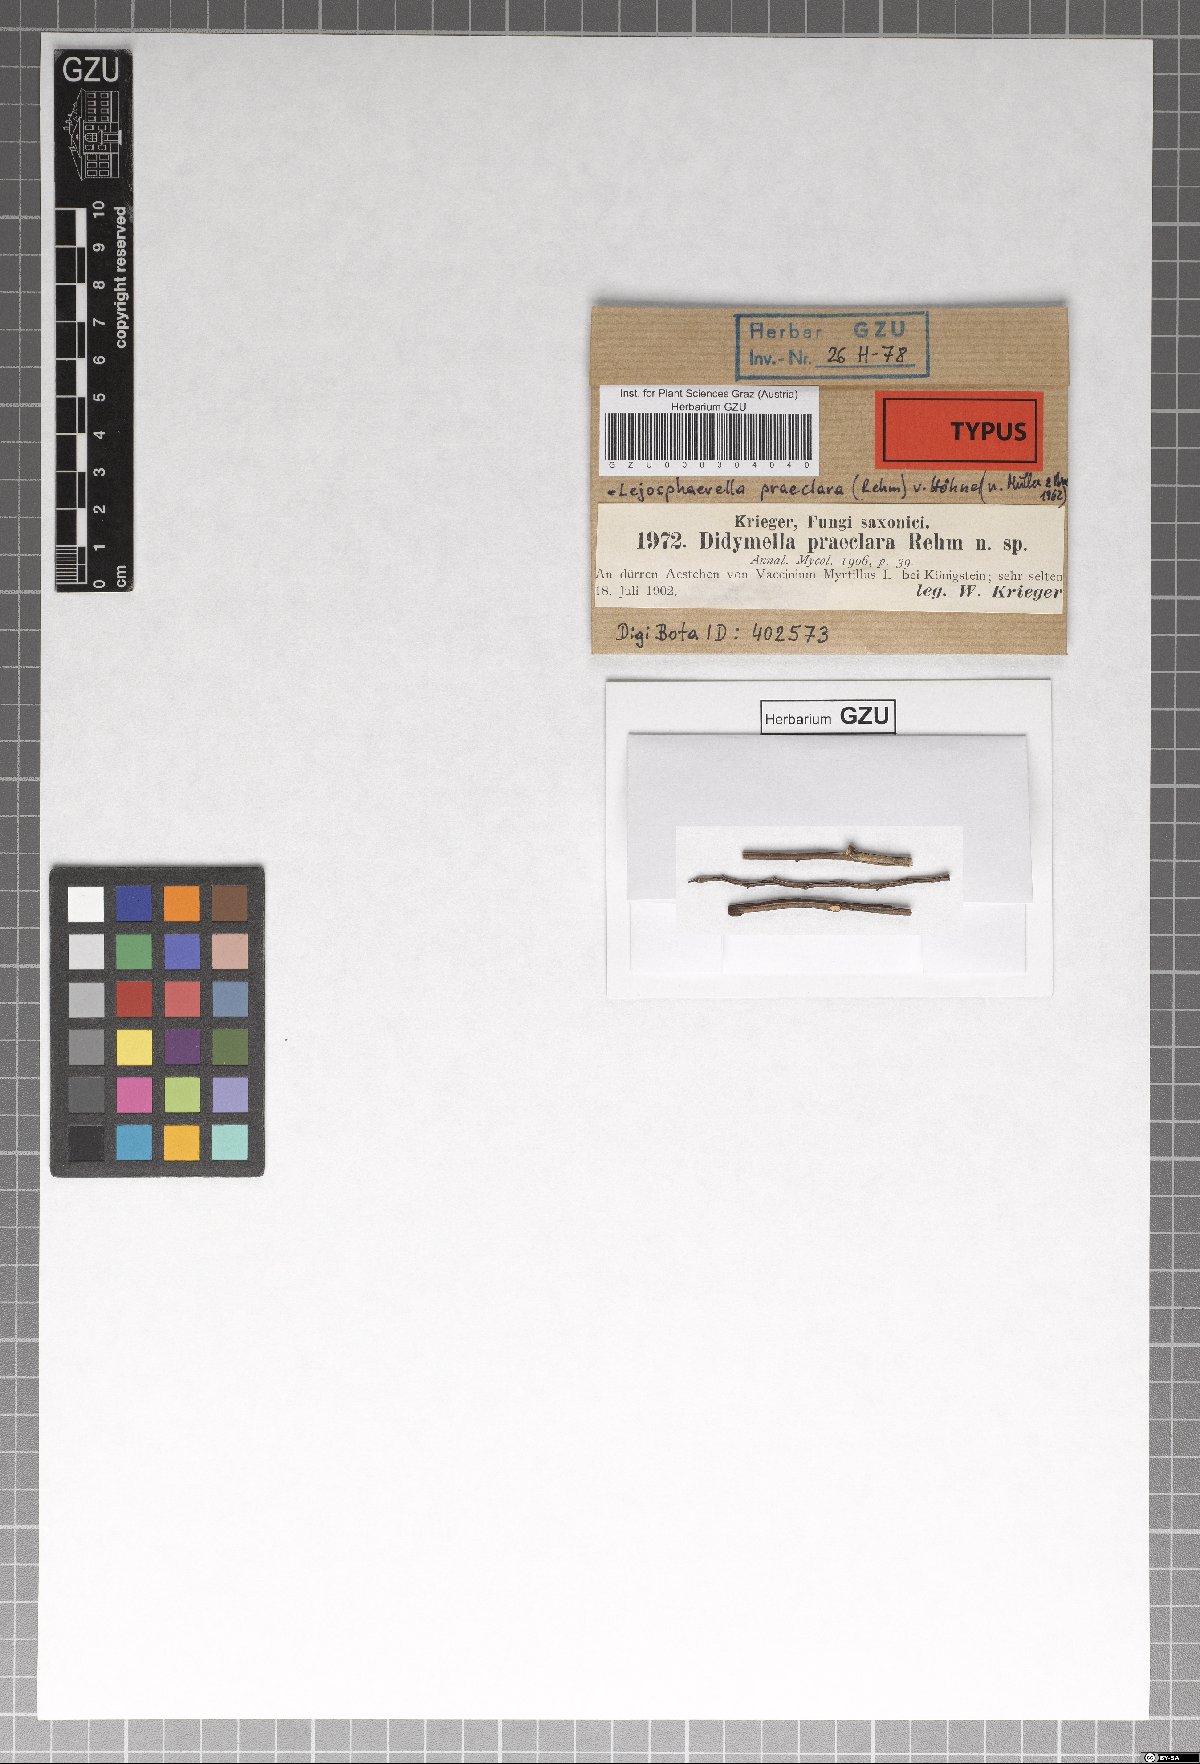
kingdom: Fungi
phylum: Ascomycota
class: Sordariomycetes
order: Xylariales
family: Pseudomassariaceae
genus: Leiosphaerella
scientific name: Leiosphaerella praeclara
